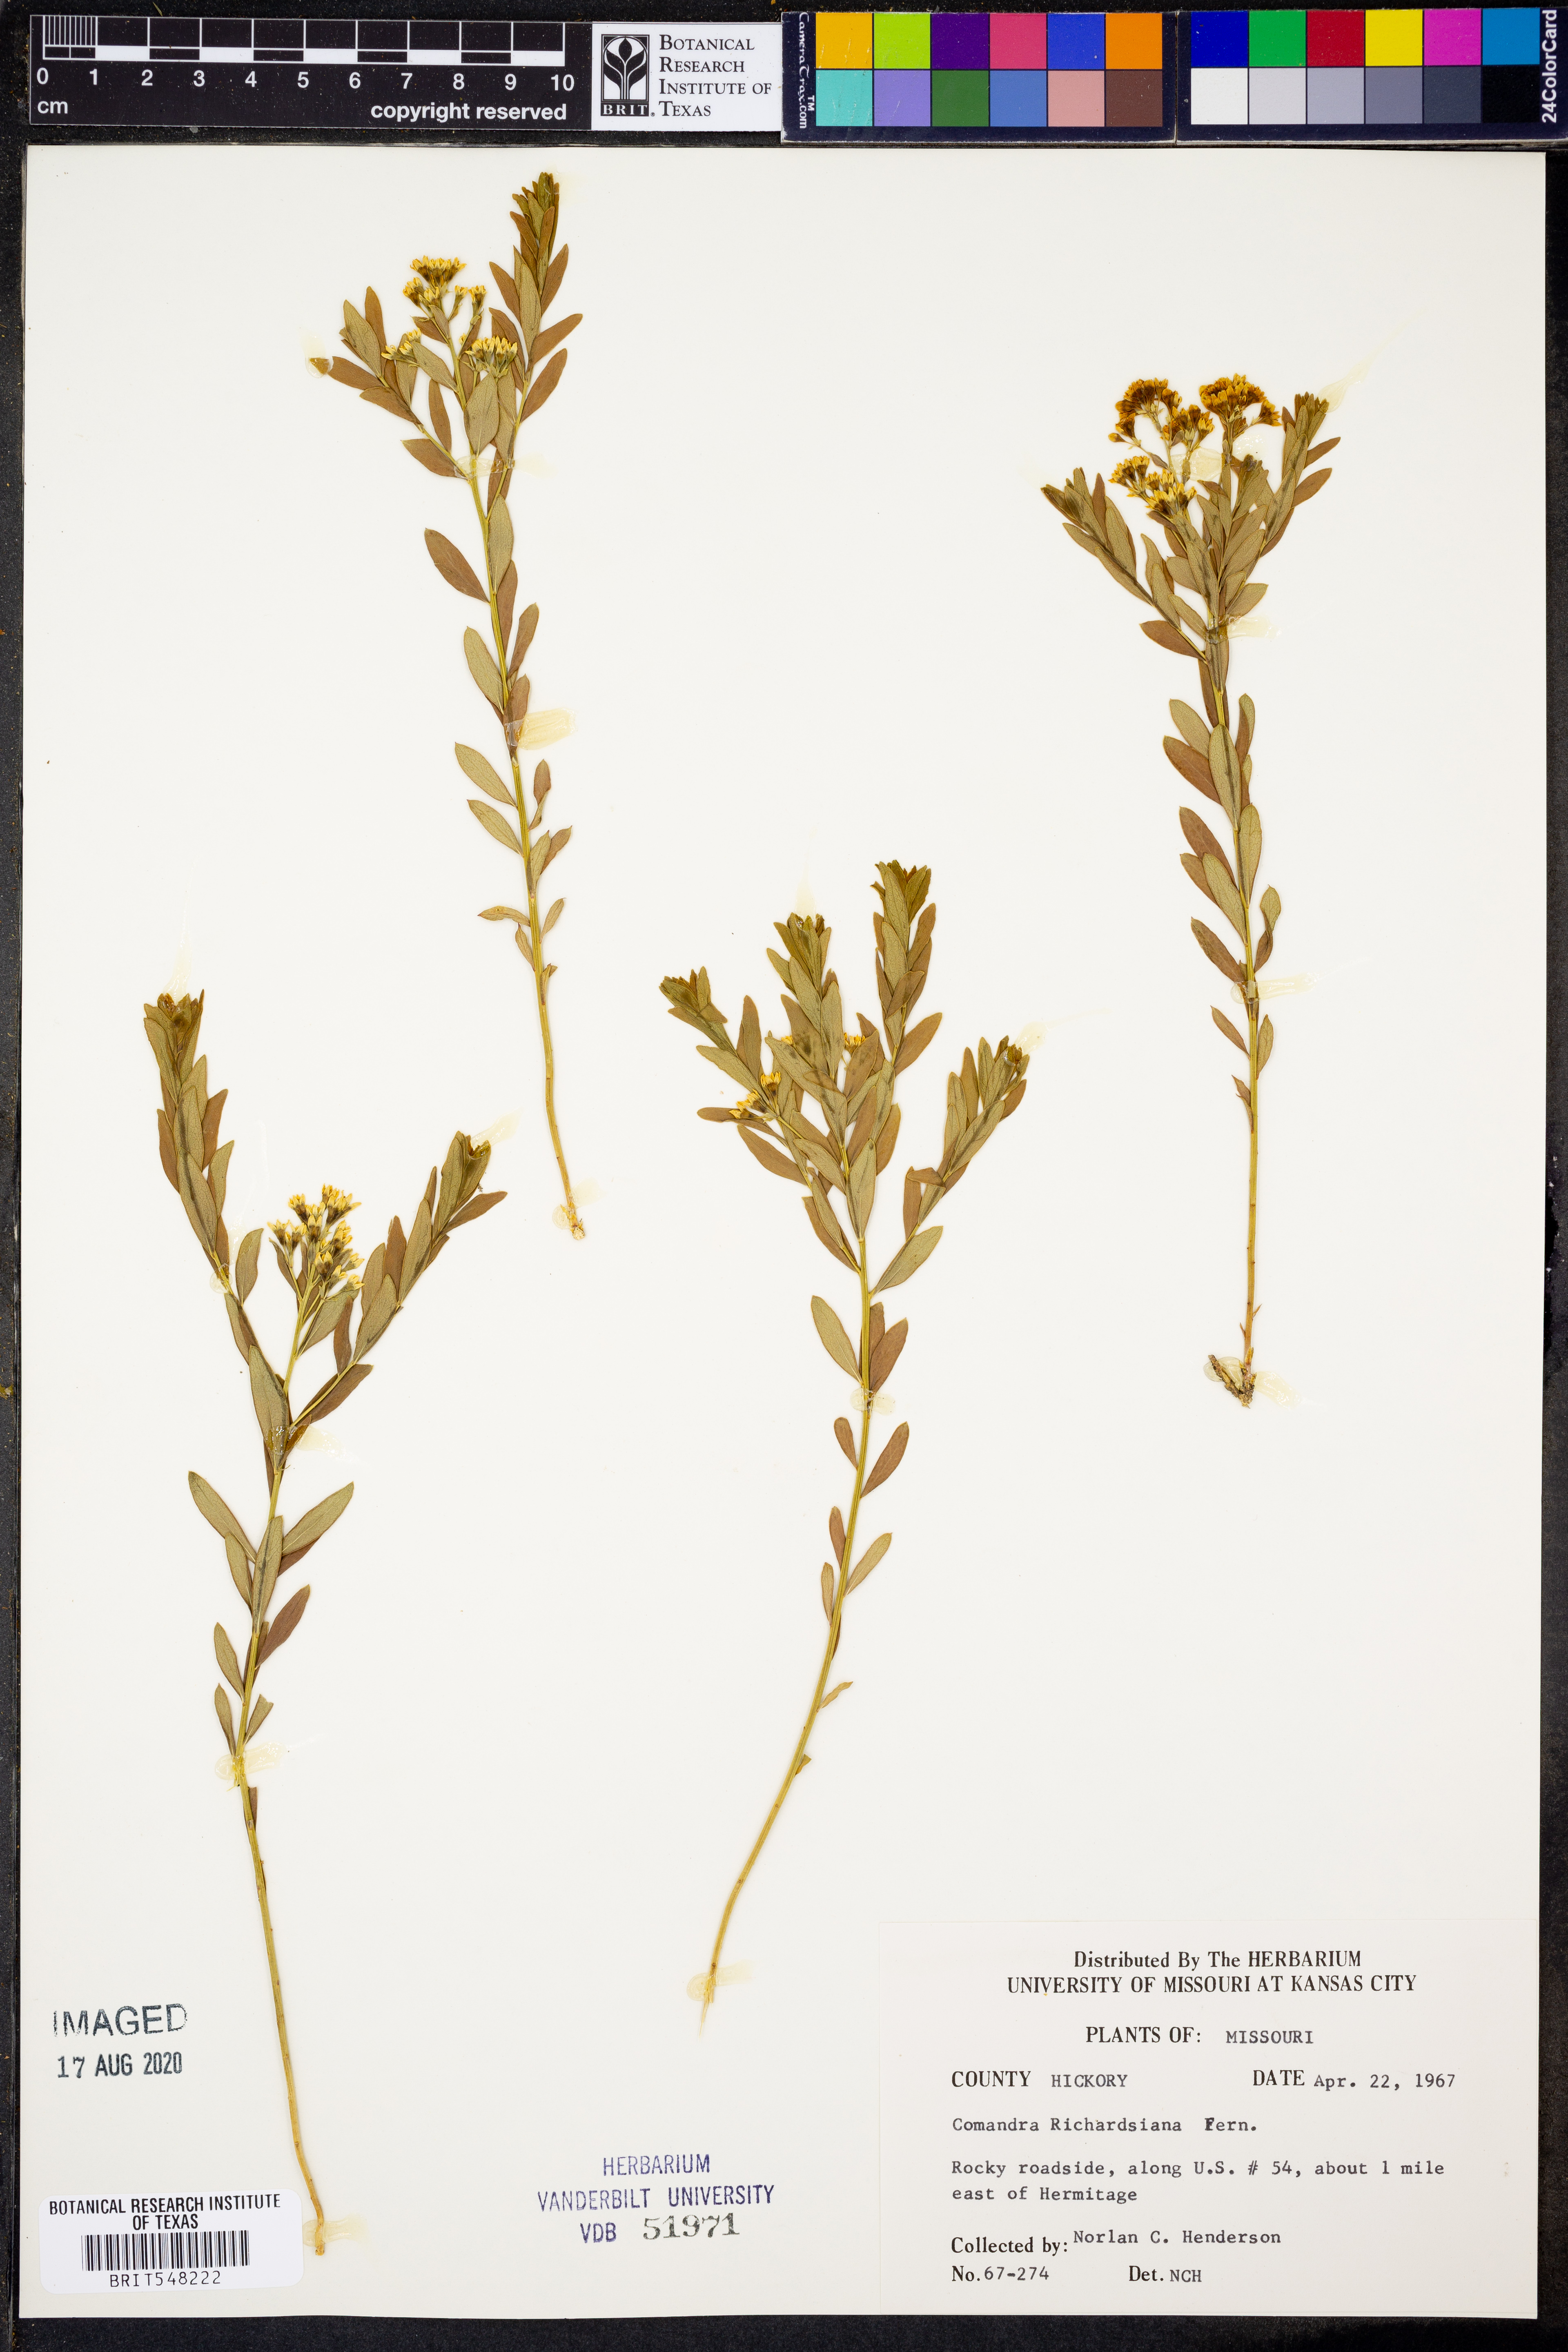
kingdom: Plantae
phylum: Tracheophyta
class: Magnoliopsida
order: Santalales
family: Comandraceae
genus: Comandra
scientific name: Comandra umbellata
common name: Bastard toadflax
